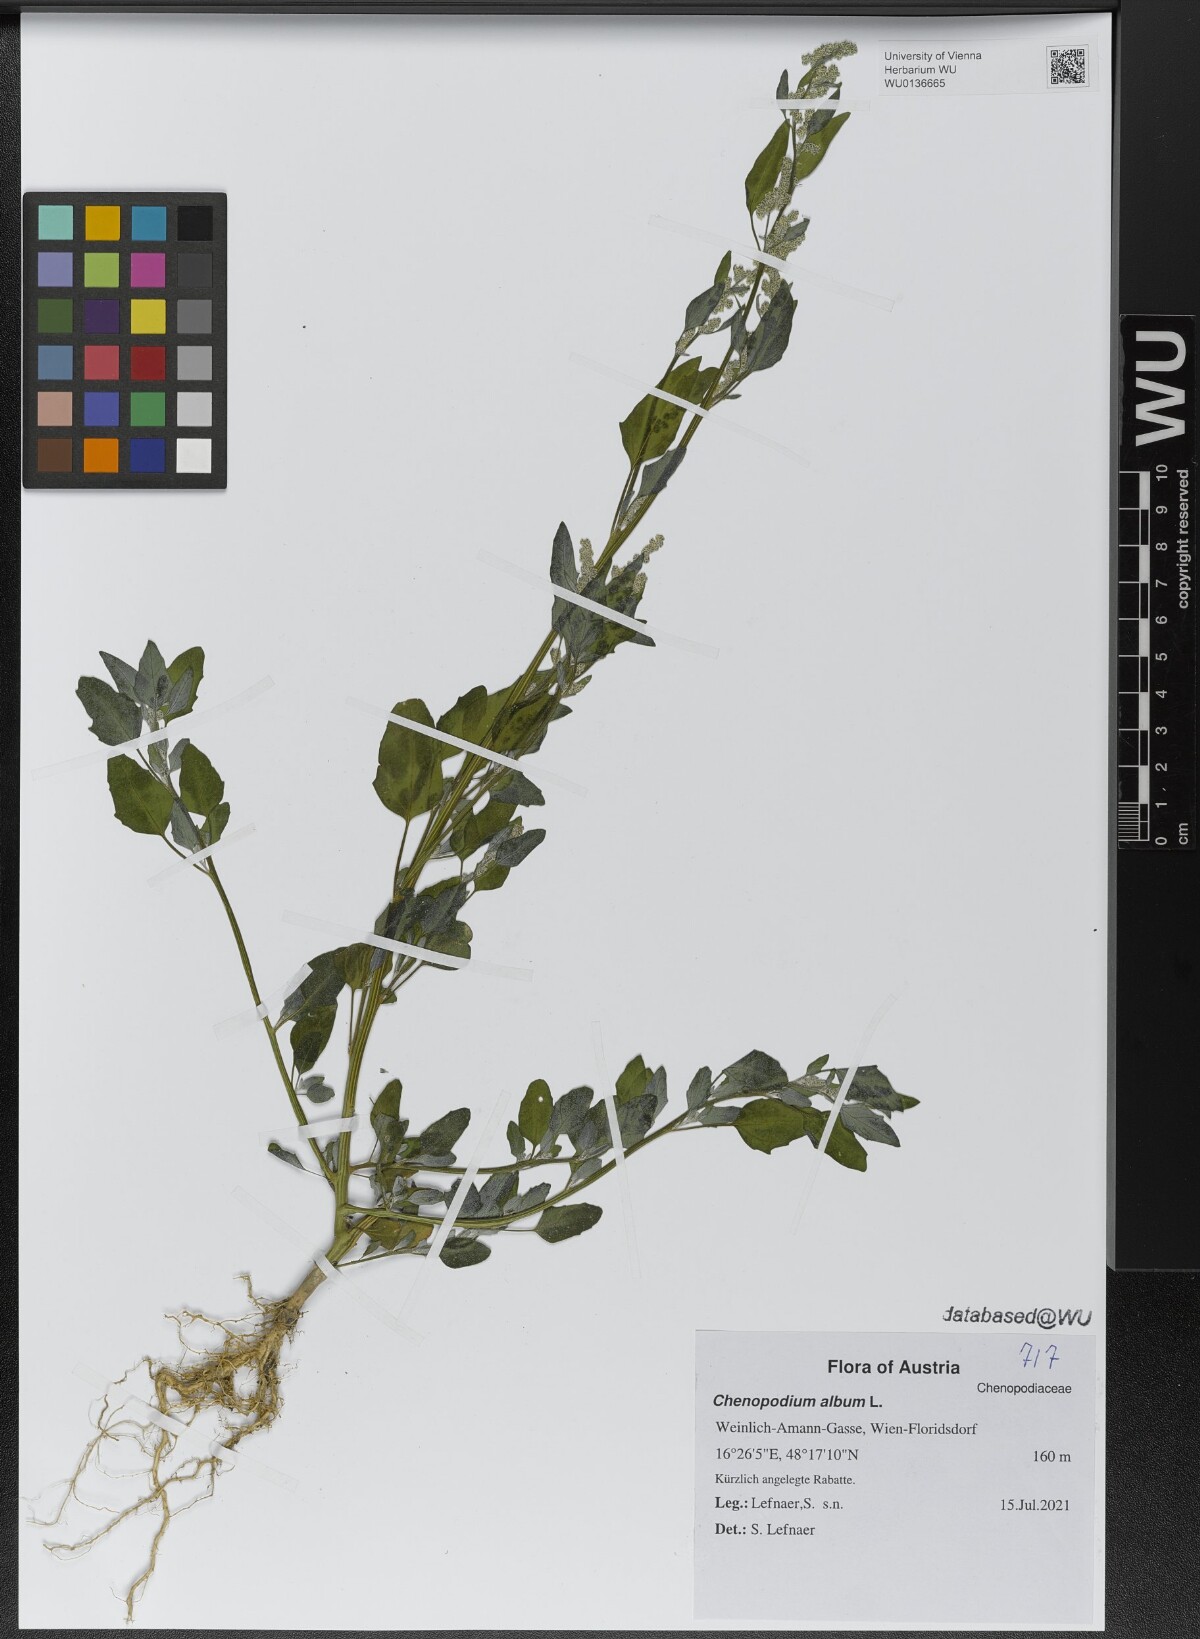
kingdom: Plantae
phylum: Tracheophyta
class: Magnoliopsida
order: Caryophyllales
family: Amaranthaceae
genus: Chenopodium
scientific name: Chenopodium album
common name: Fat-hen
